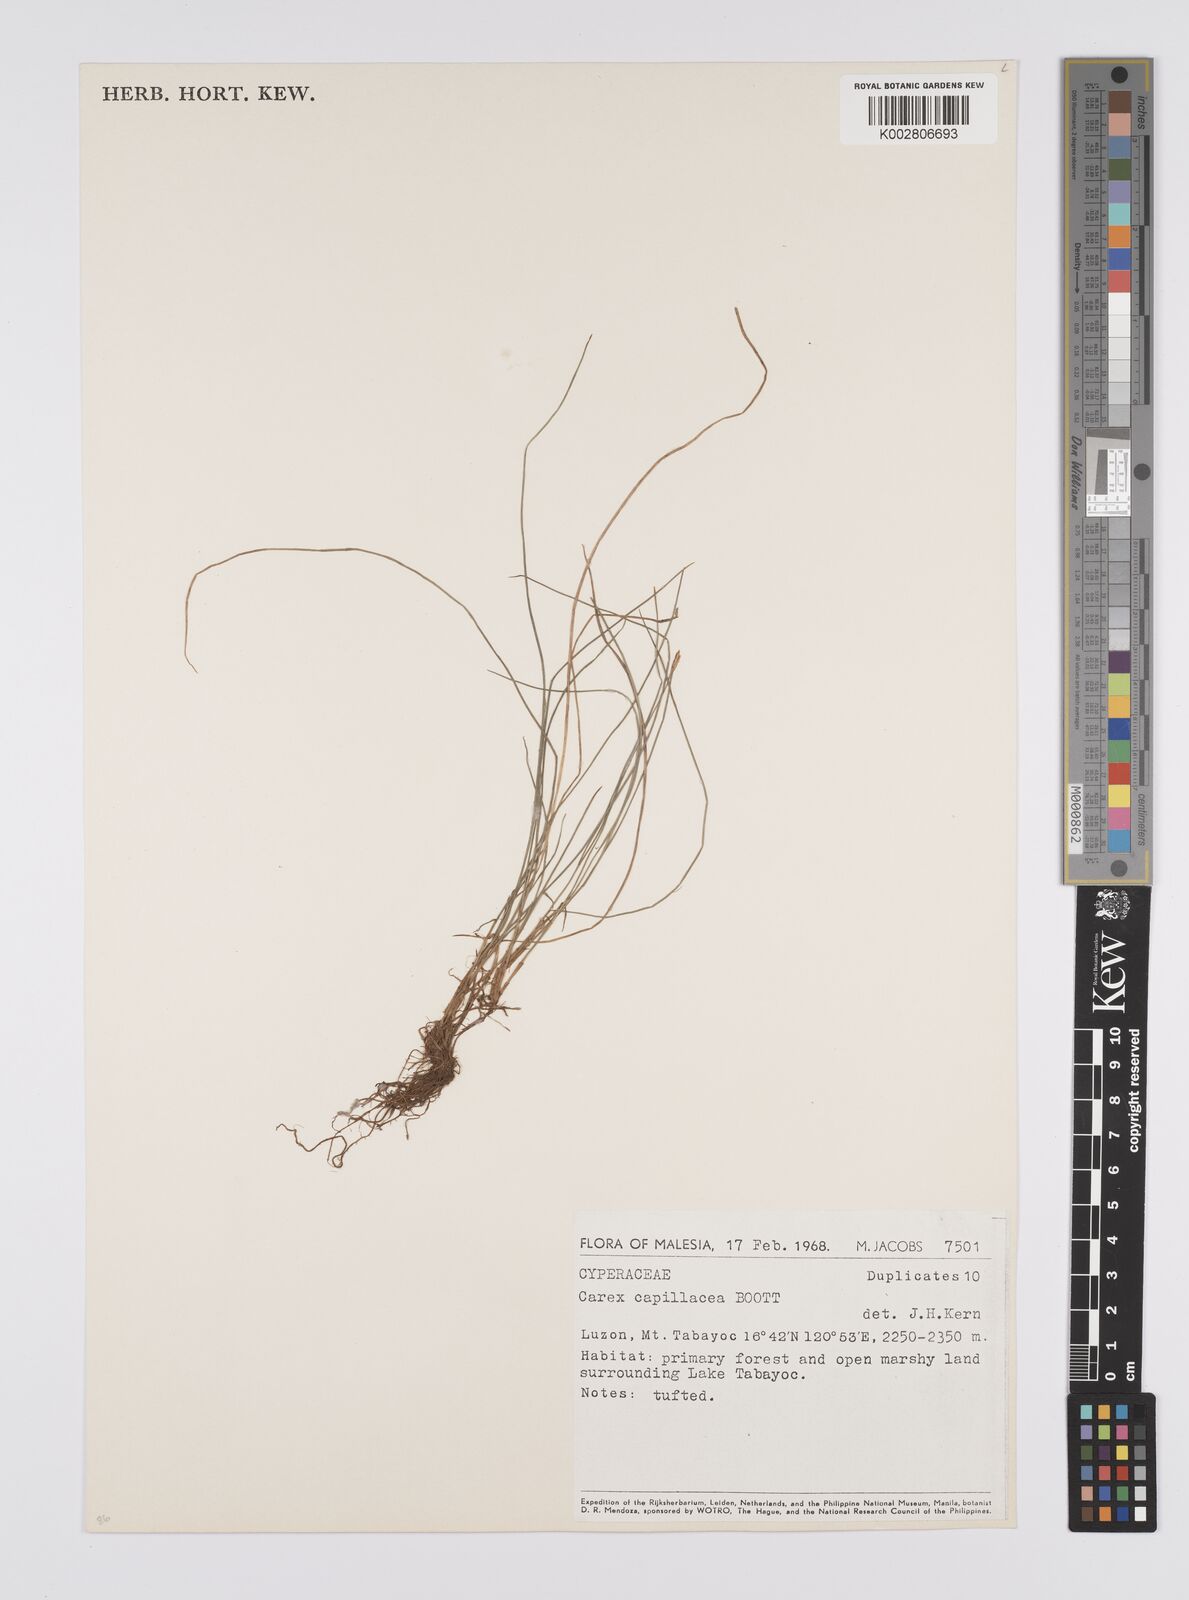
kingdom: Plantae
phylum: Tracheophyta
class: Liliopsida
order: Poales
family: Cyperaceae
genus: Carex
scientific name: Carex capillacea
